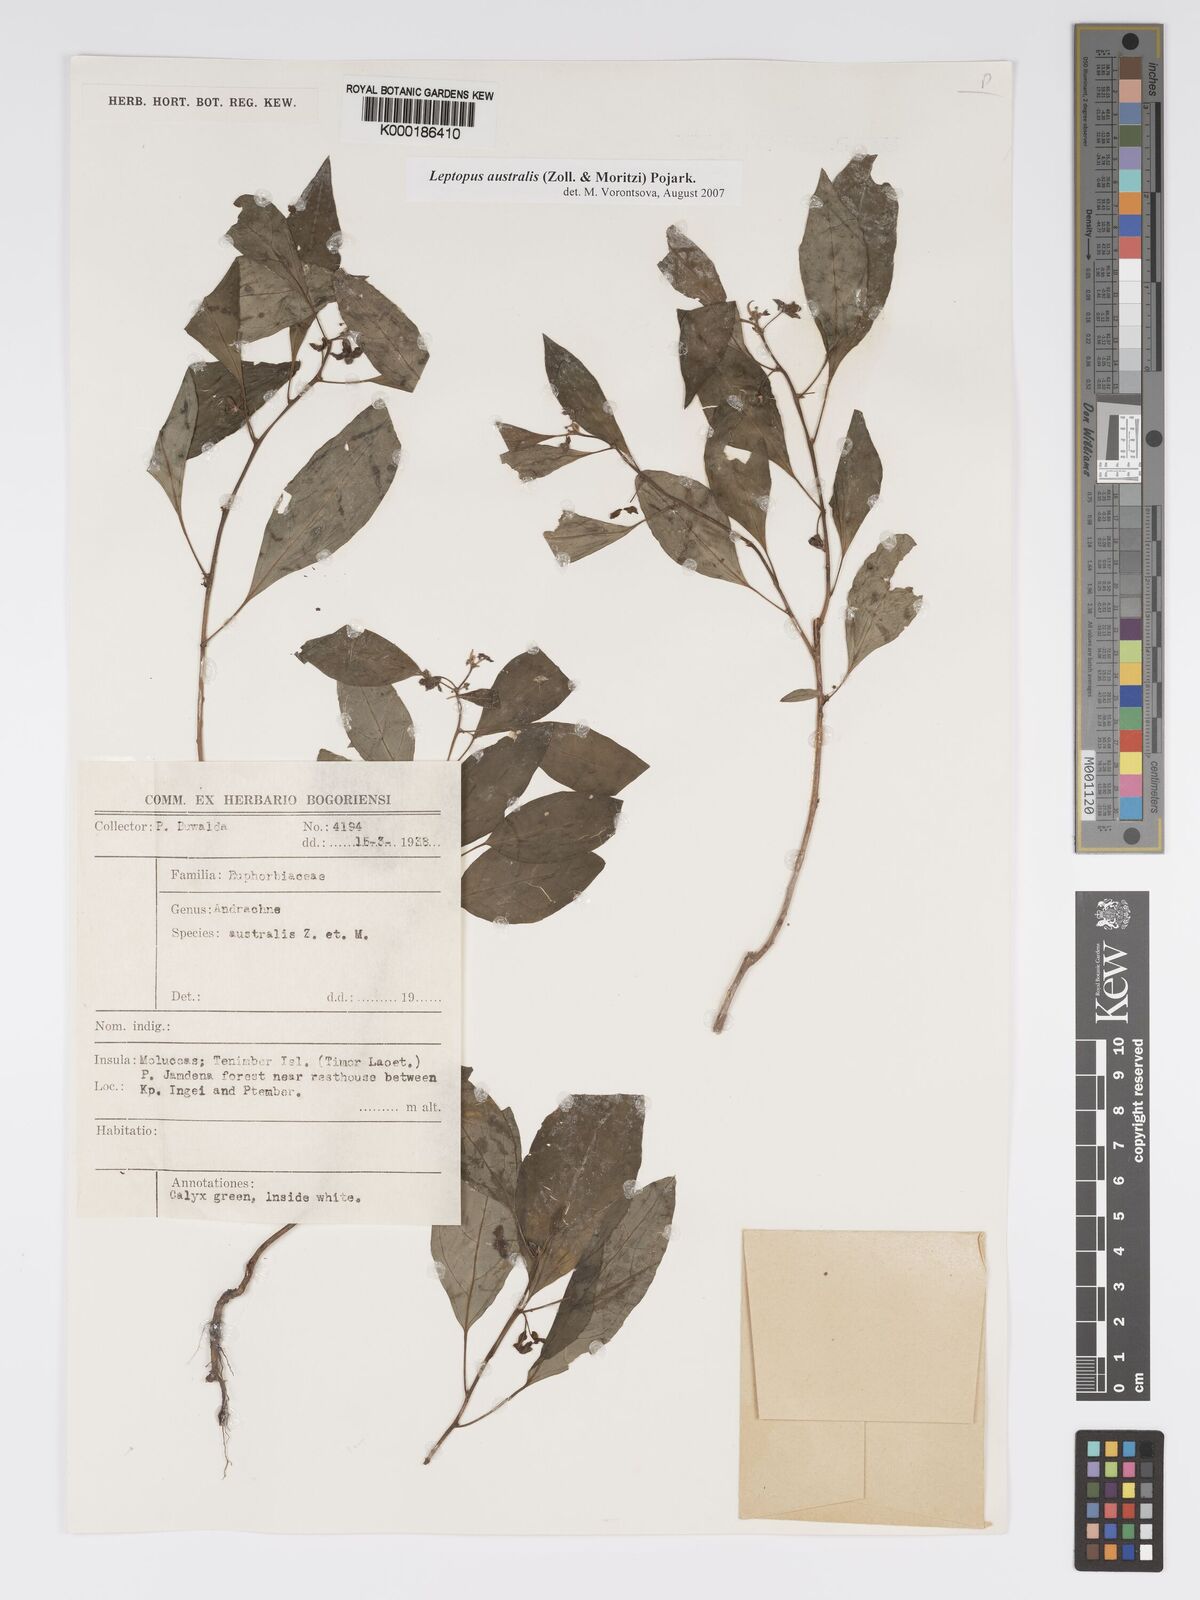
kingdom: Plantae
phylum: Tracheophyta
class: Magnoliopsida
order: Malpighiales
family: Phyllanthaceae
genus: Leptopus
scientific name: Leptopus australis
